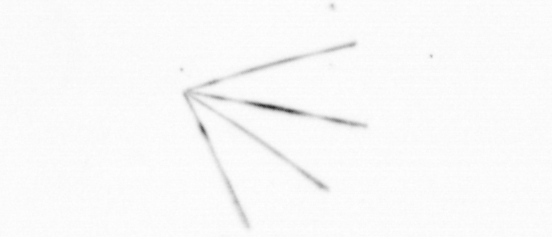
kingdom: Chromista
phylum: Ochrophyta
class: Bacillariophyceae
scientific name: Bacillariophyceae
